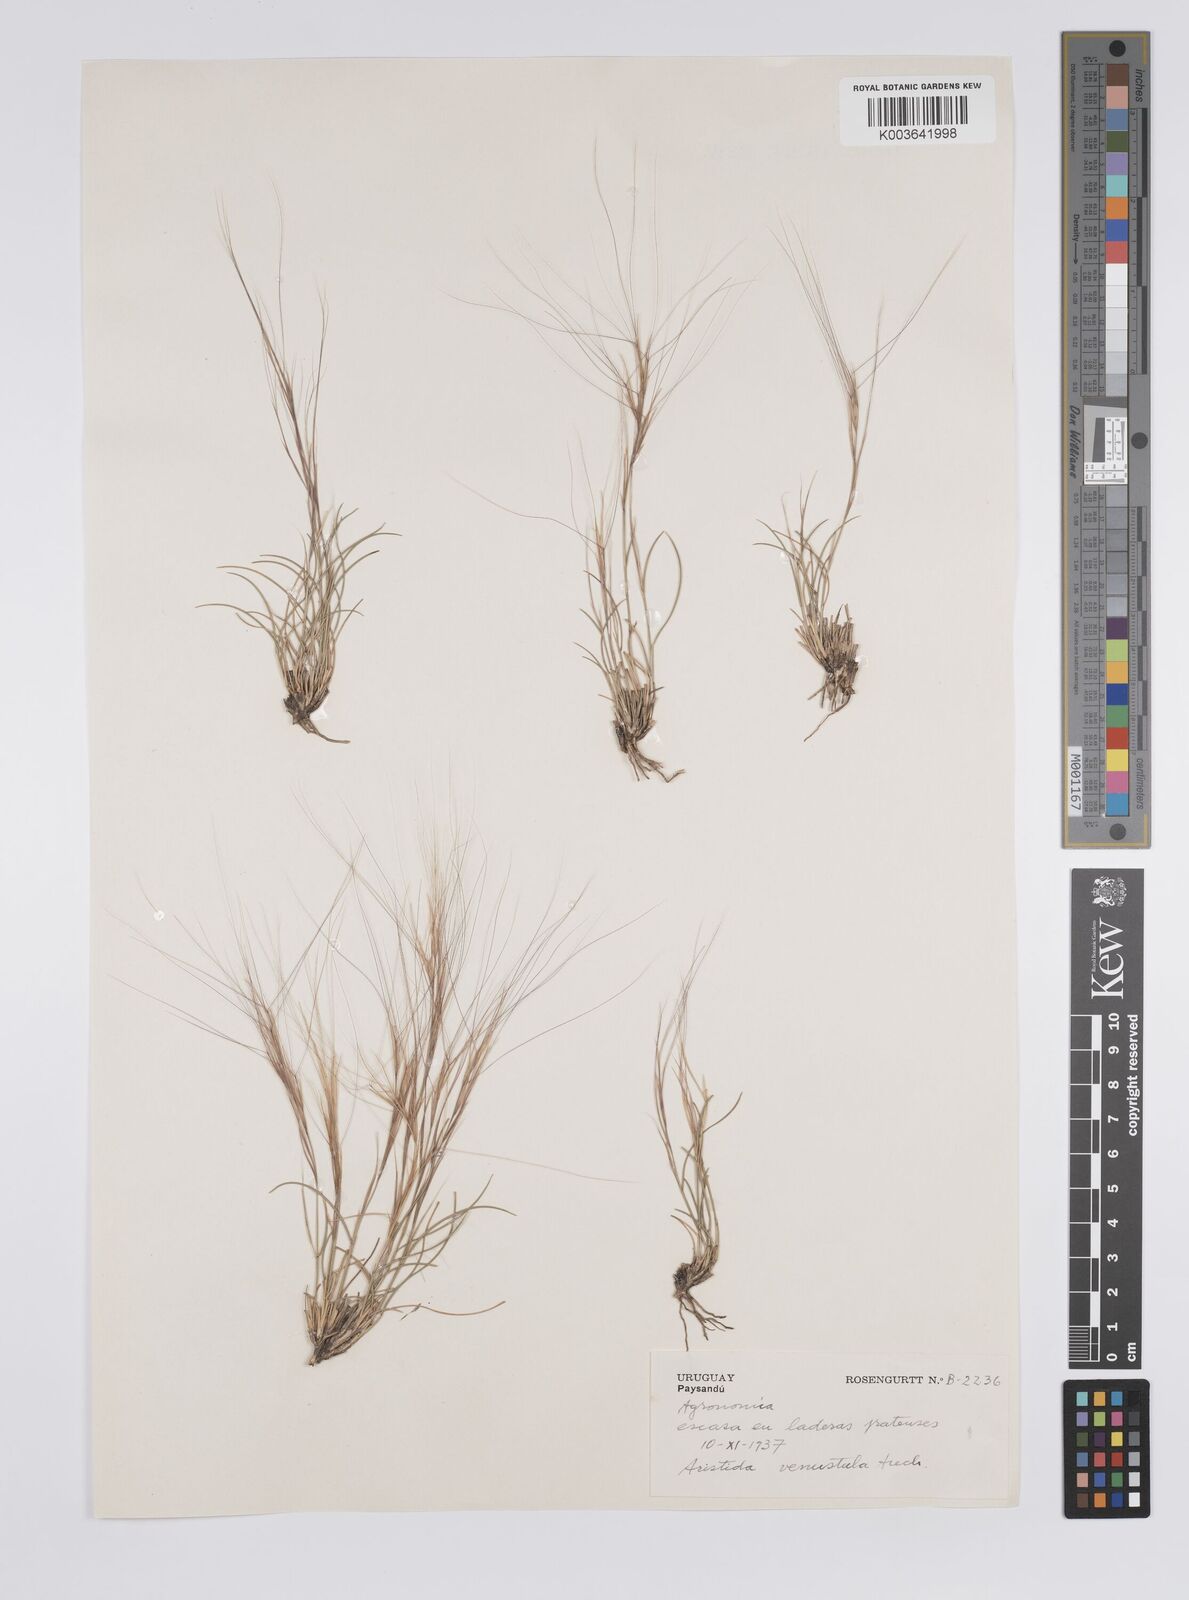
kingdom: Plantae
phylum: Tracheophyta
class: Liliopsida
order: Poales
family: Poaceae
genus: Aristida
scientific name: Aristida venustula
